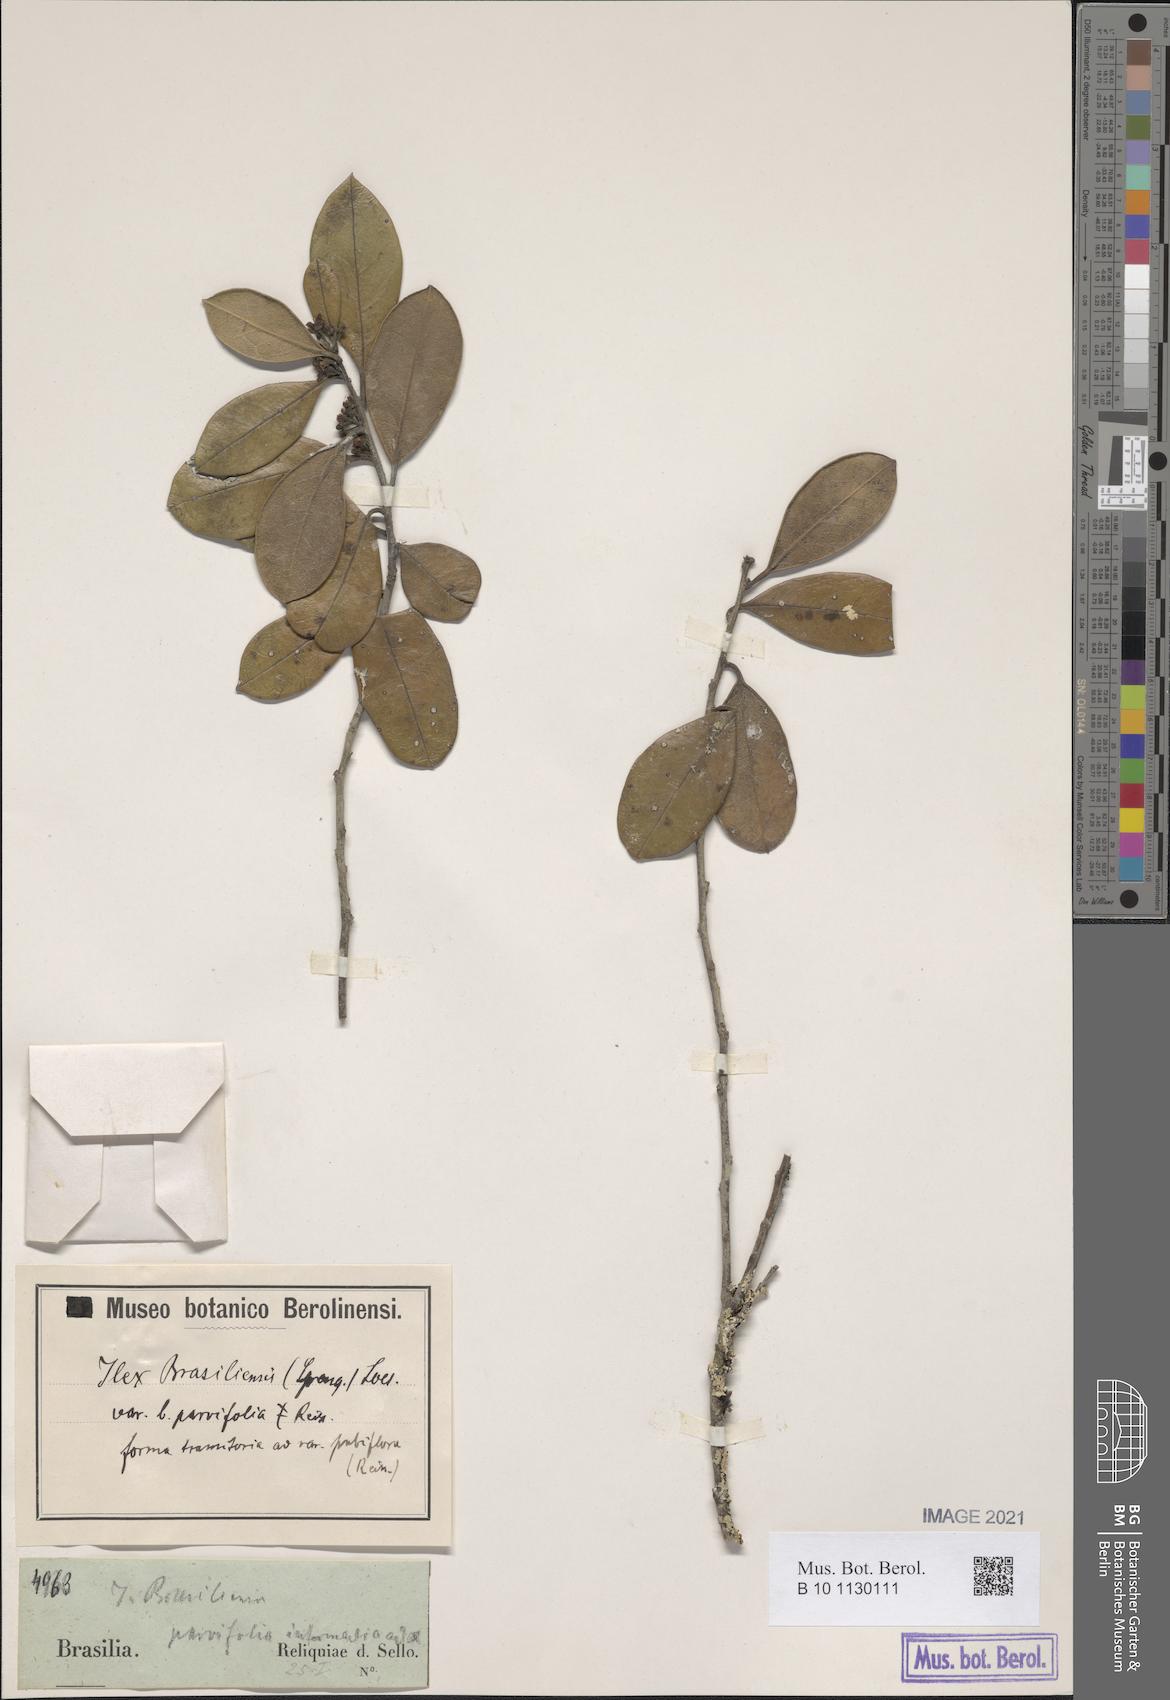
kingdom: Plantae
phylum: Tracheophyta
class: Magnoliopsida
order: Aquifoliales
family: Aquifoliaceae
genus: Ilex
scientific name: Ilex brasiliensis
